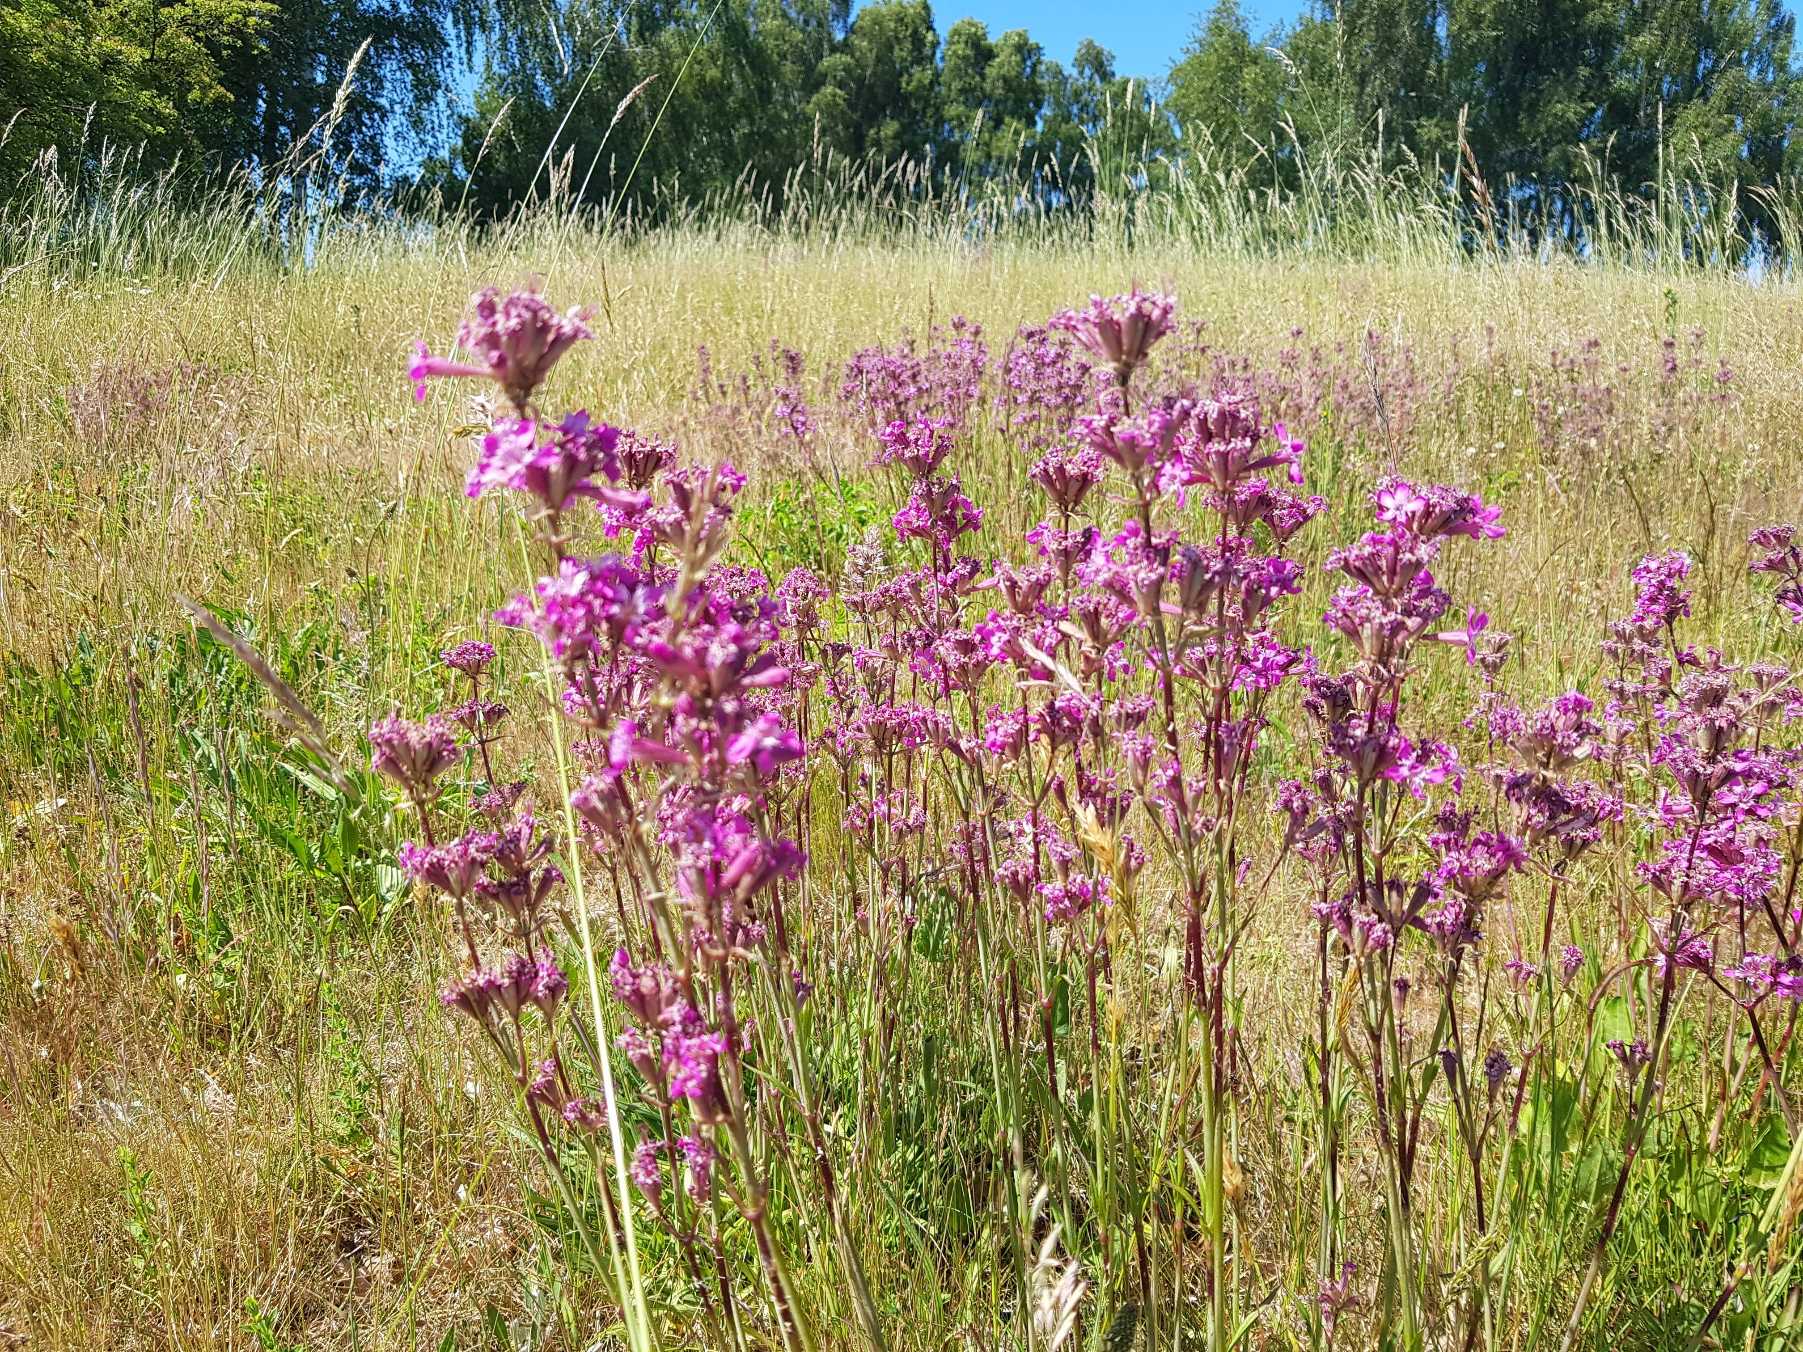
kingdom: Plantae
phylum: Tracheophyta
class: Magnoliopsida
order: Caryophyllales
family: Caryophyllaceae
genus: Viscaria
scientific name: Viscaria vulgaris
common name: Tjærenellike
